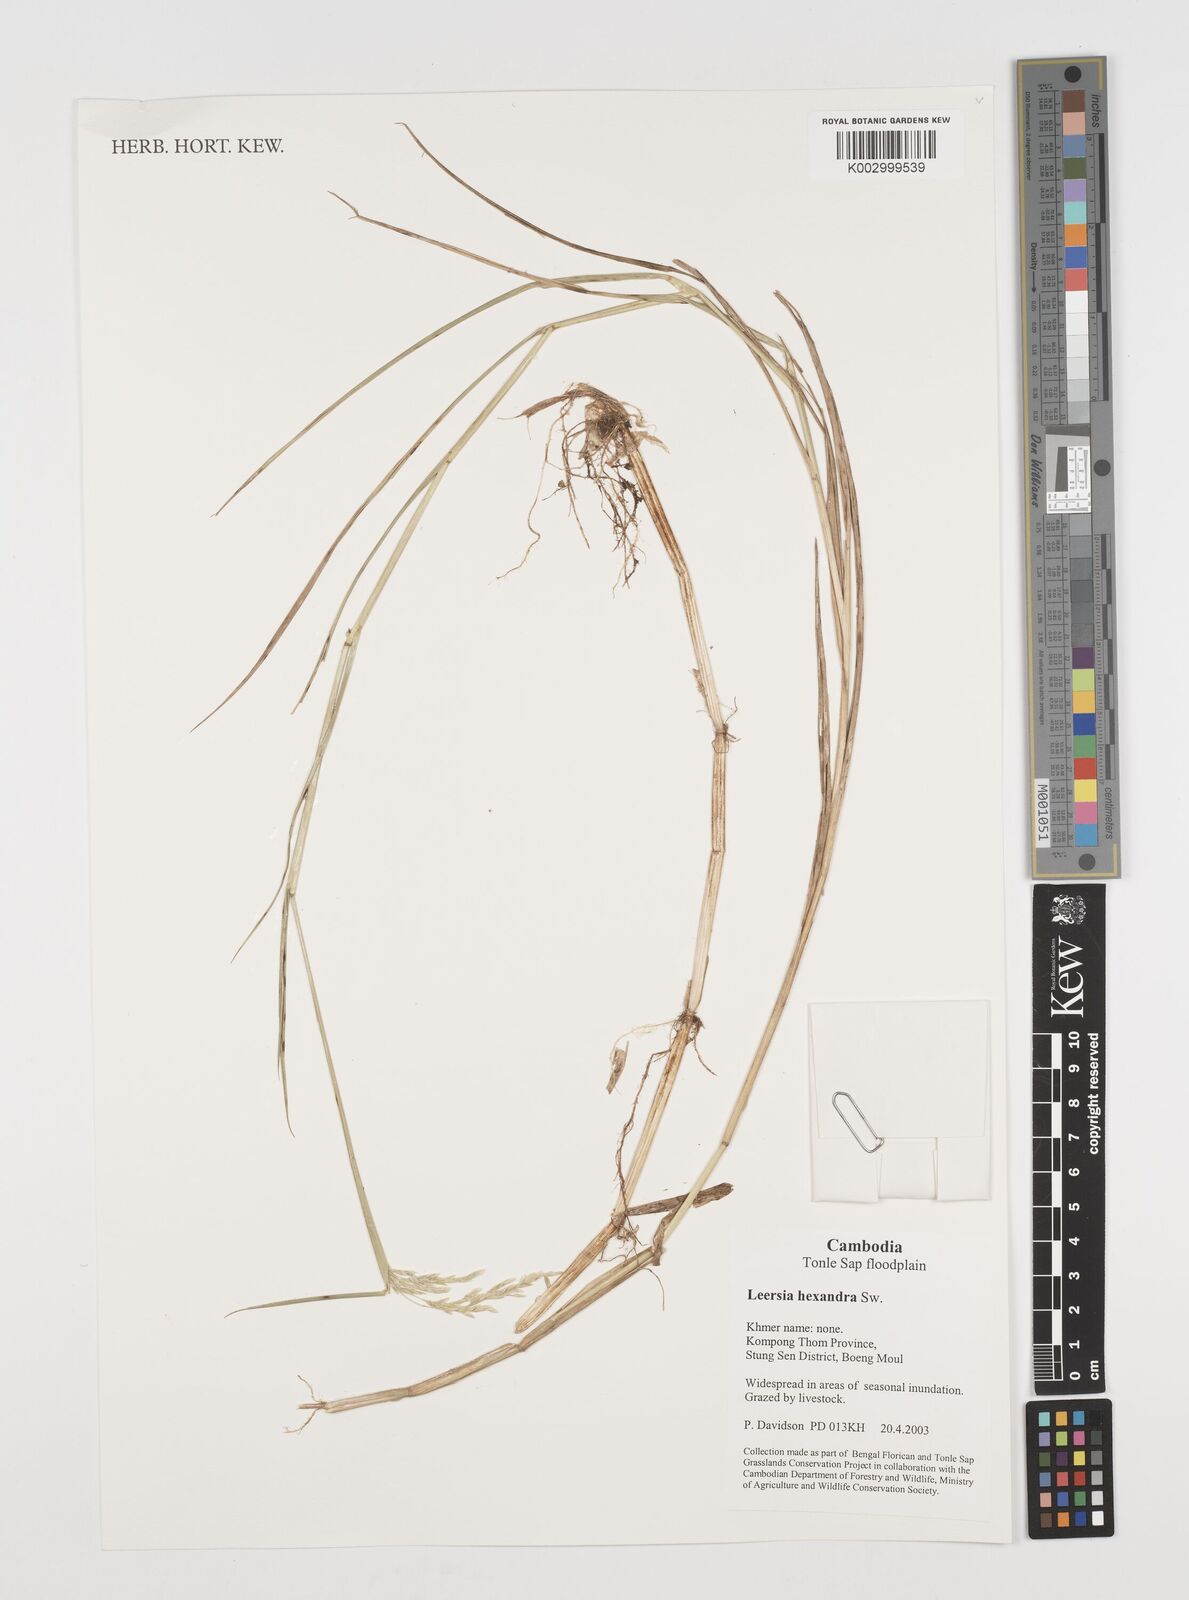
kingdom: Plantae
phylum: Tracheophyta
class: Liliopsida
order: Poales
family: Poaceae
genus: Leersia
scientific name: Leersia hexandra
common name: Southern cut grass
